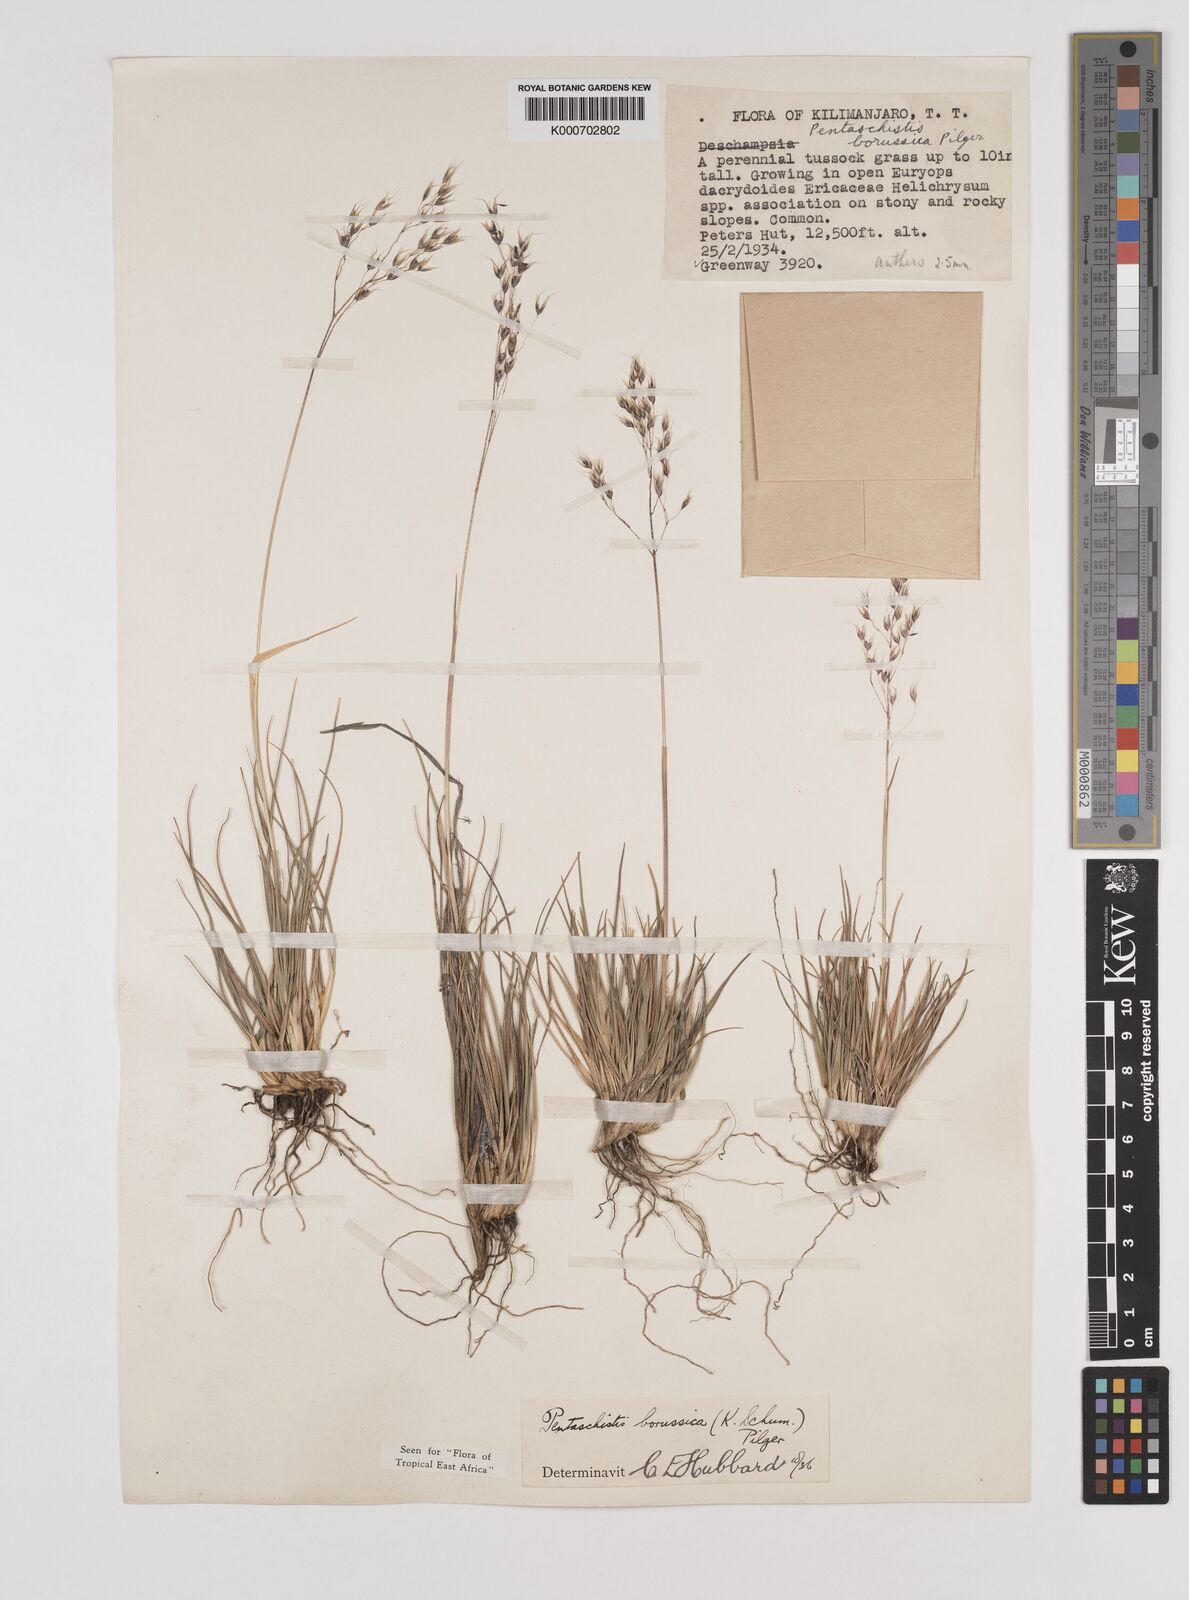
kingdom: Plantae
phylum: Tracheophyta
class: Liliopsida
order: Poales
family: Poaceae
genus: Pentameris
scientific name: Pentameris borussica
